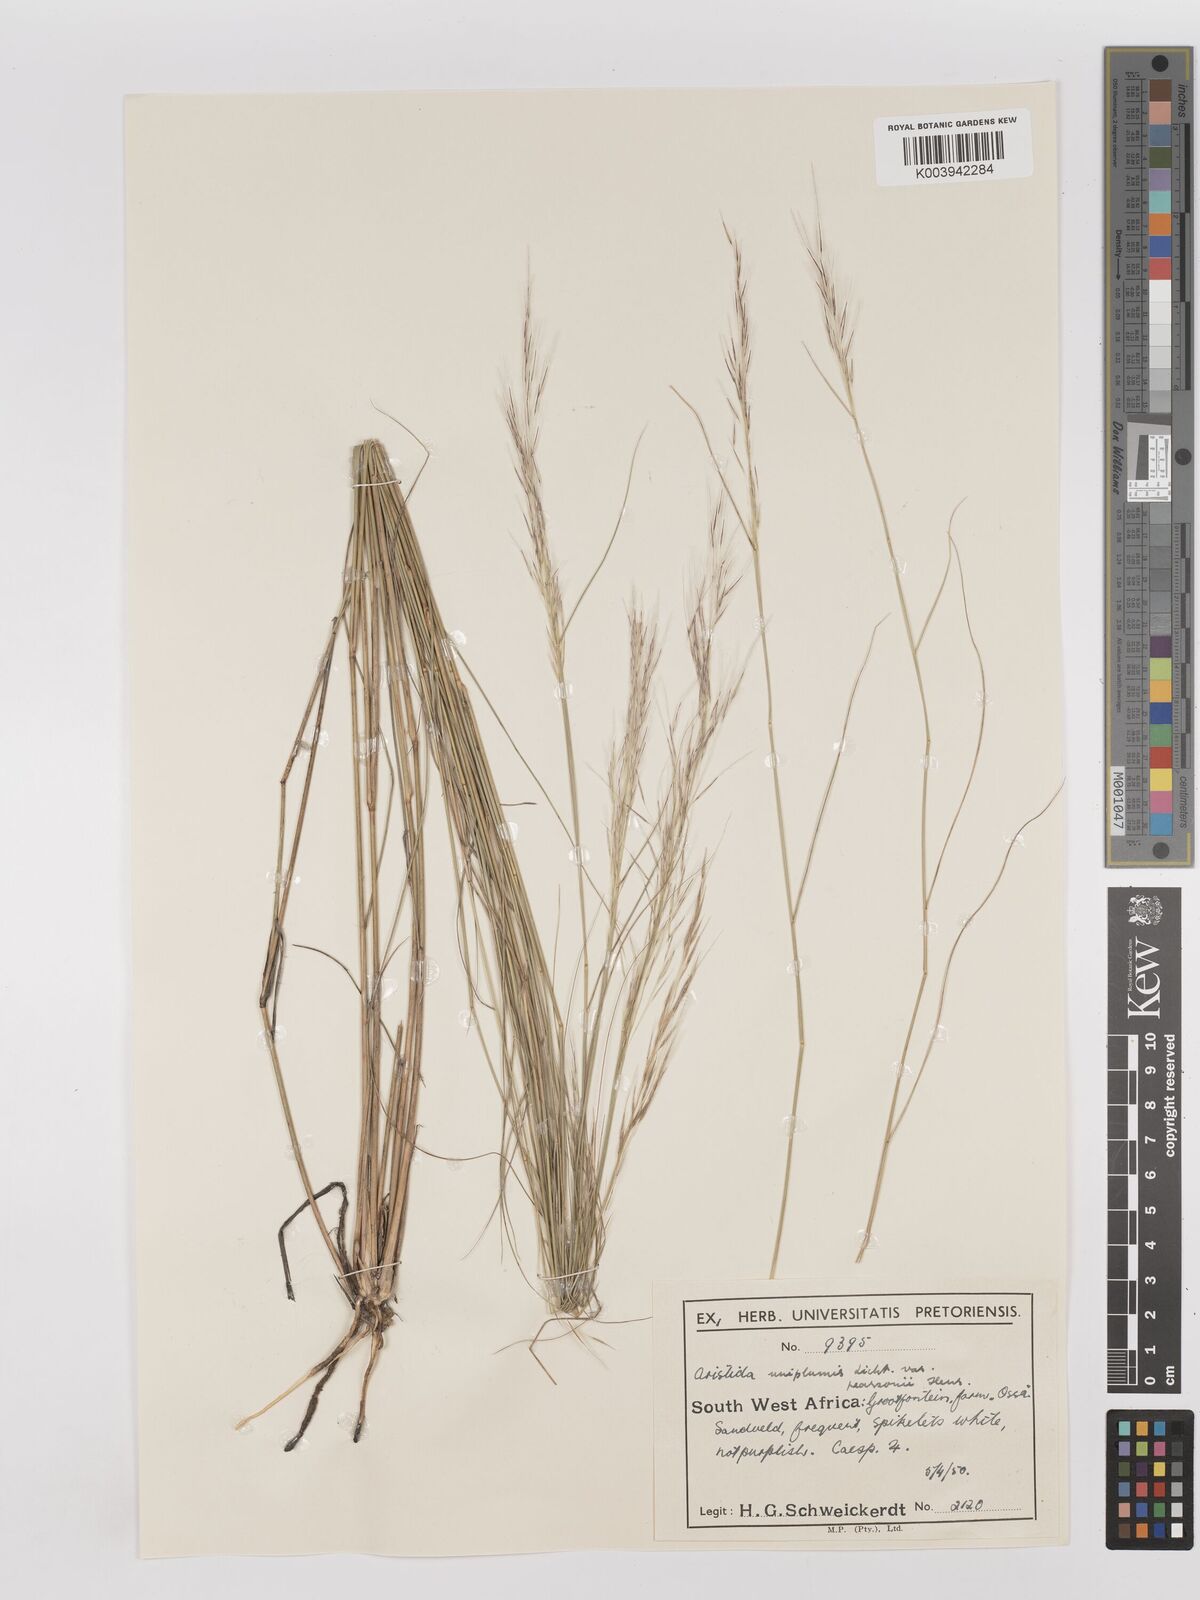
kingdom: Plantae
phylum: Tracheophyta
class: Liliopsida
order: Poales
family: Poaceae
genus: Stipagrostis
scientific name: Stipagrostis uniplumis
